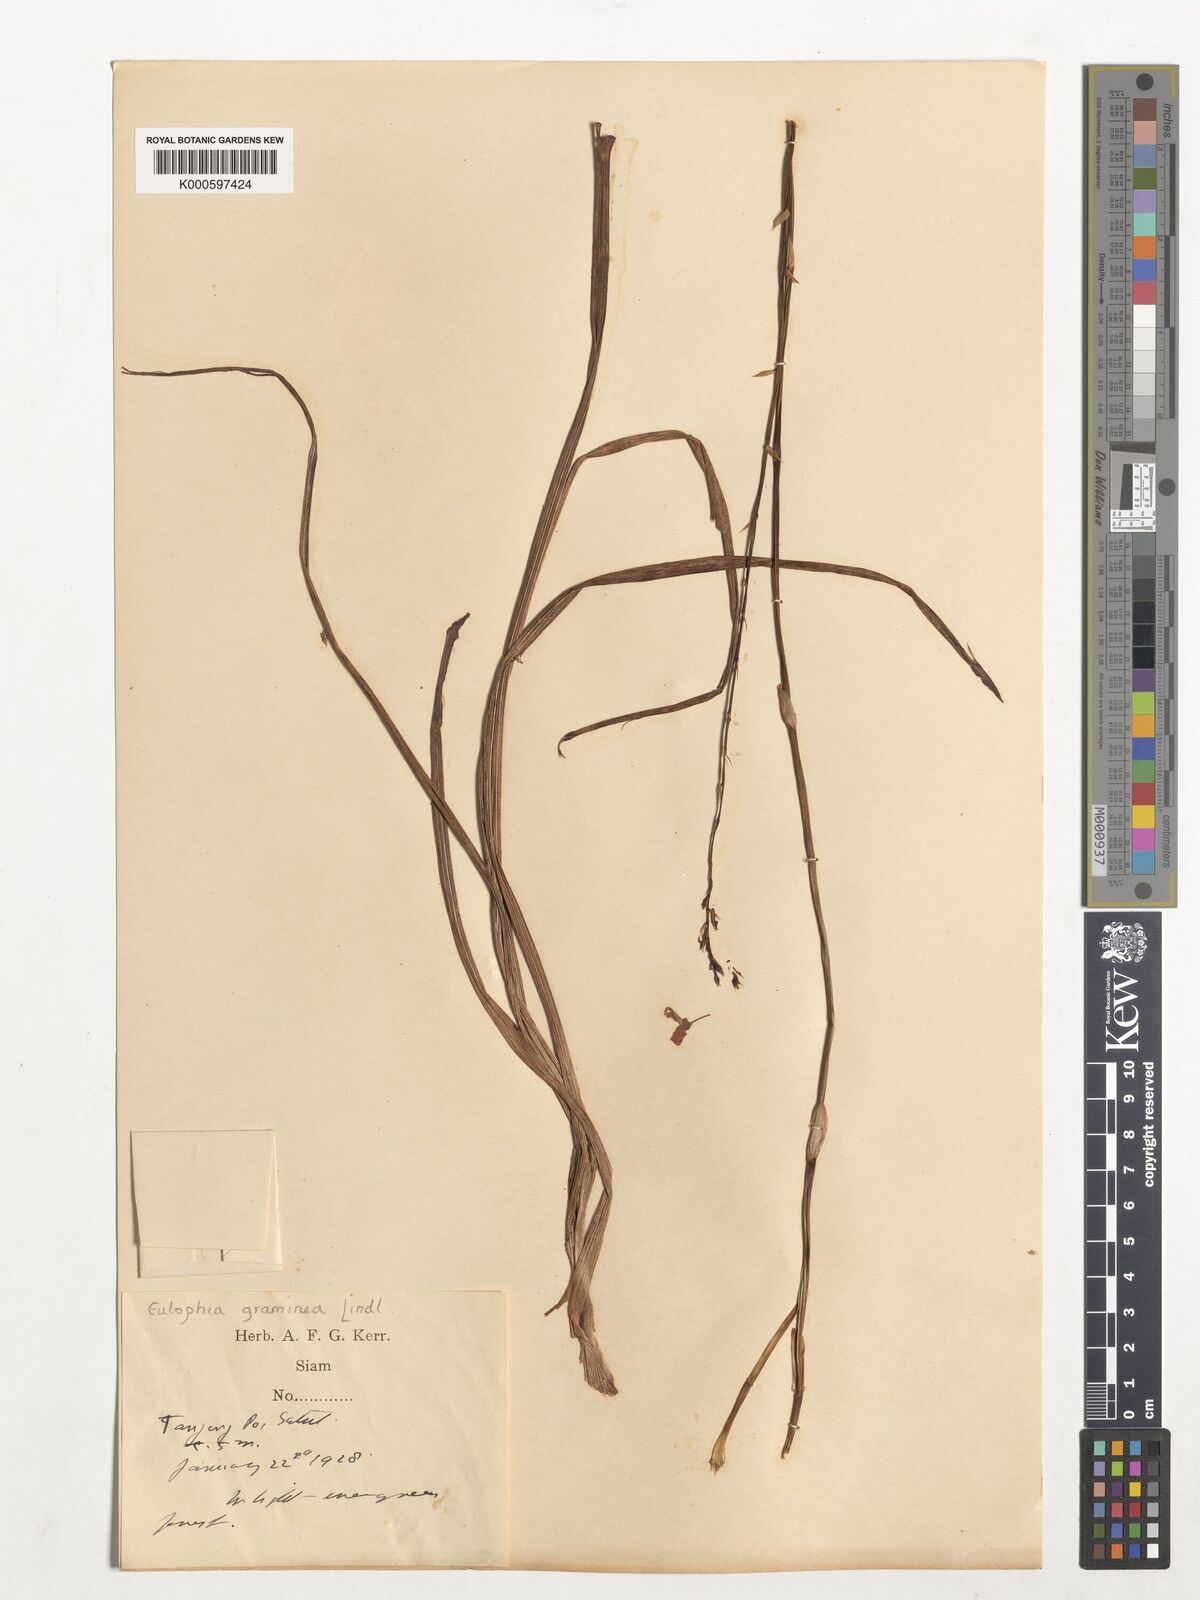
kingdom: Plantae
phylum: Tracheophyta
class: Liliopsida
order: Asparagales
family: Orchidaceae
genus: Eulophia
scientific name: Eulophia graminea
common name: Orchid
